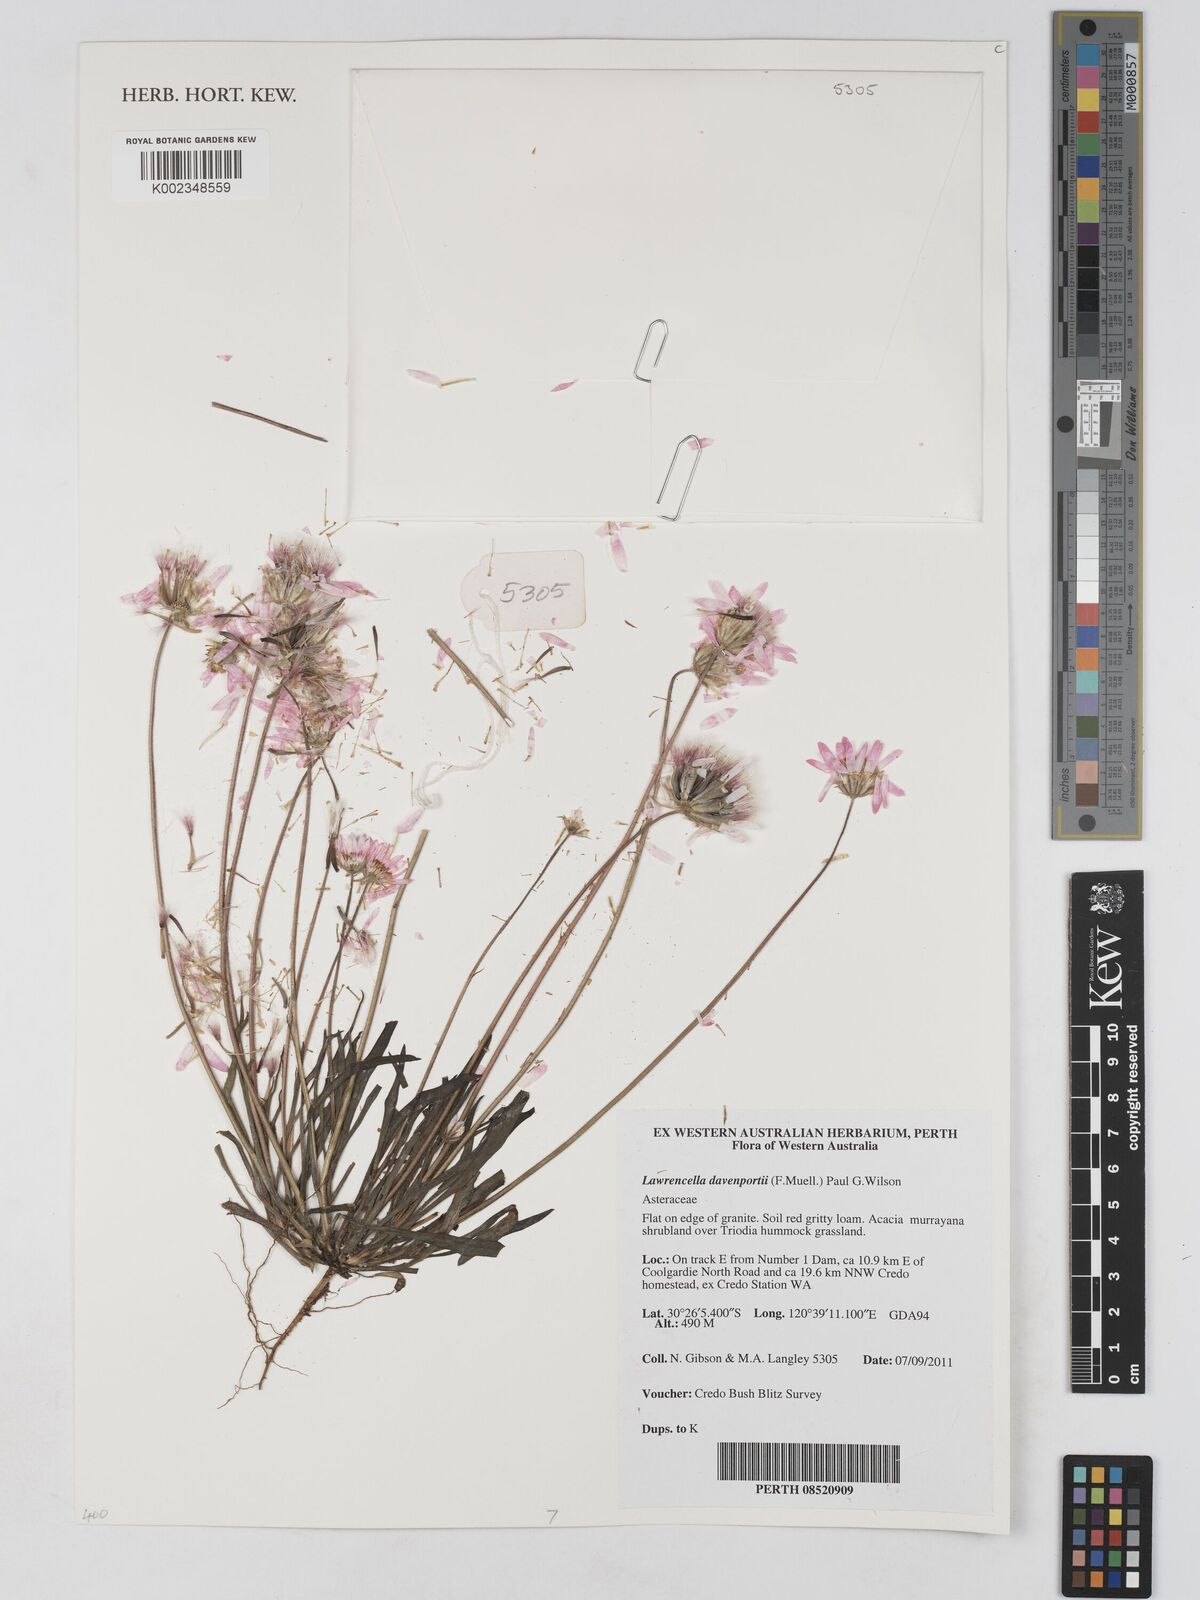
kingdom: Plantae
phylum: Tracheophyta
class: Magnoliopsida
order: Asterales
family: Asteraceae
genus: Lawrencella
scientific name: Lawrencella davenportii
